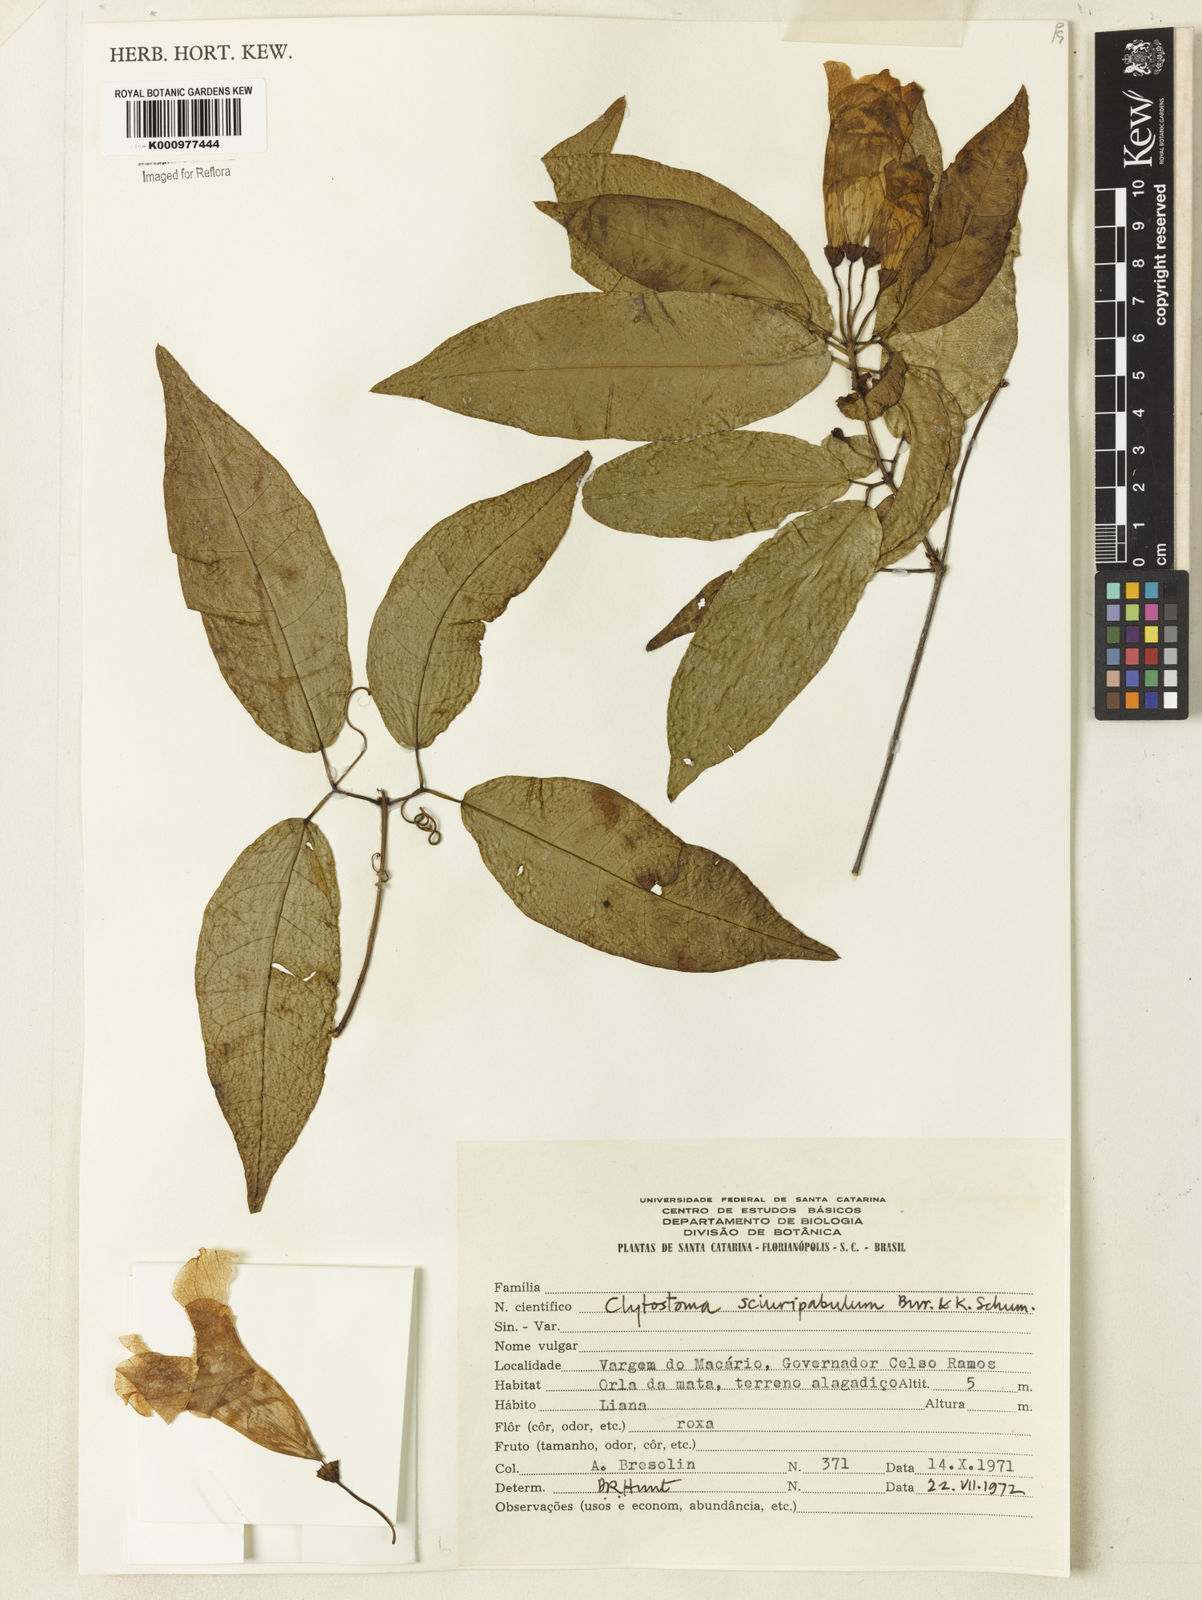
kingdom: Plantae
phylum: Tracheophyta
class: Magnoliopsida
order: Lamiales
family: Bignoniaceae
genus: Bignonia
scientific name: Bignonia
